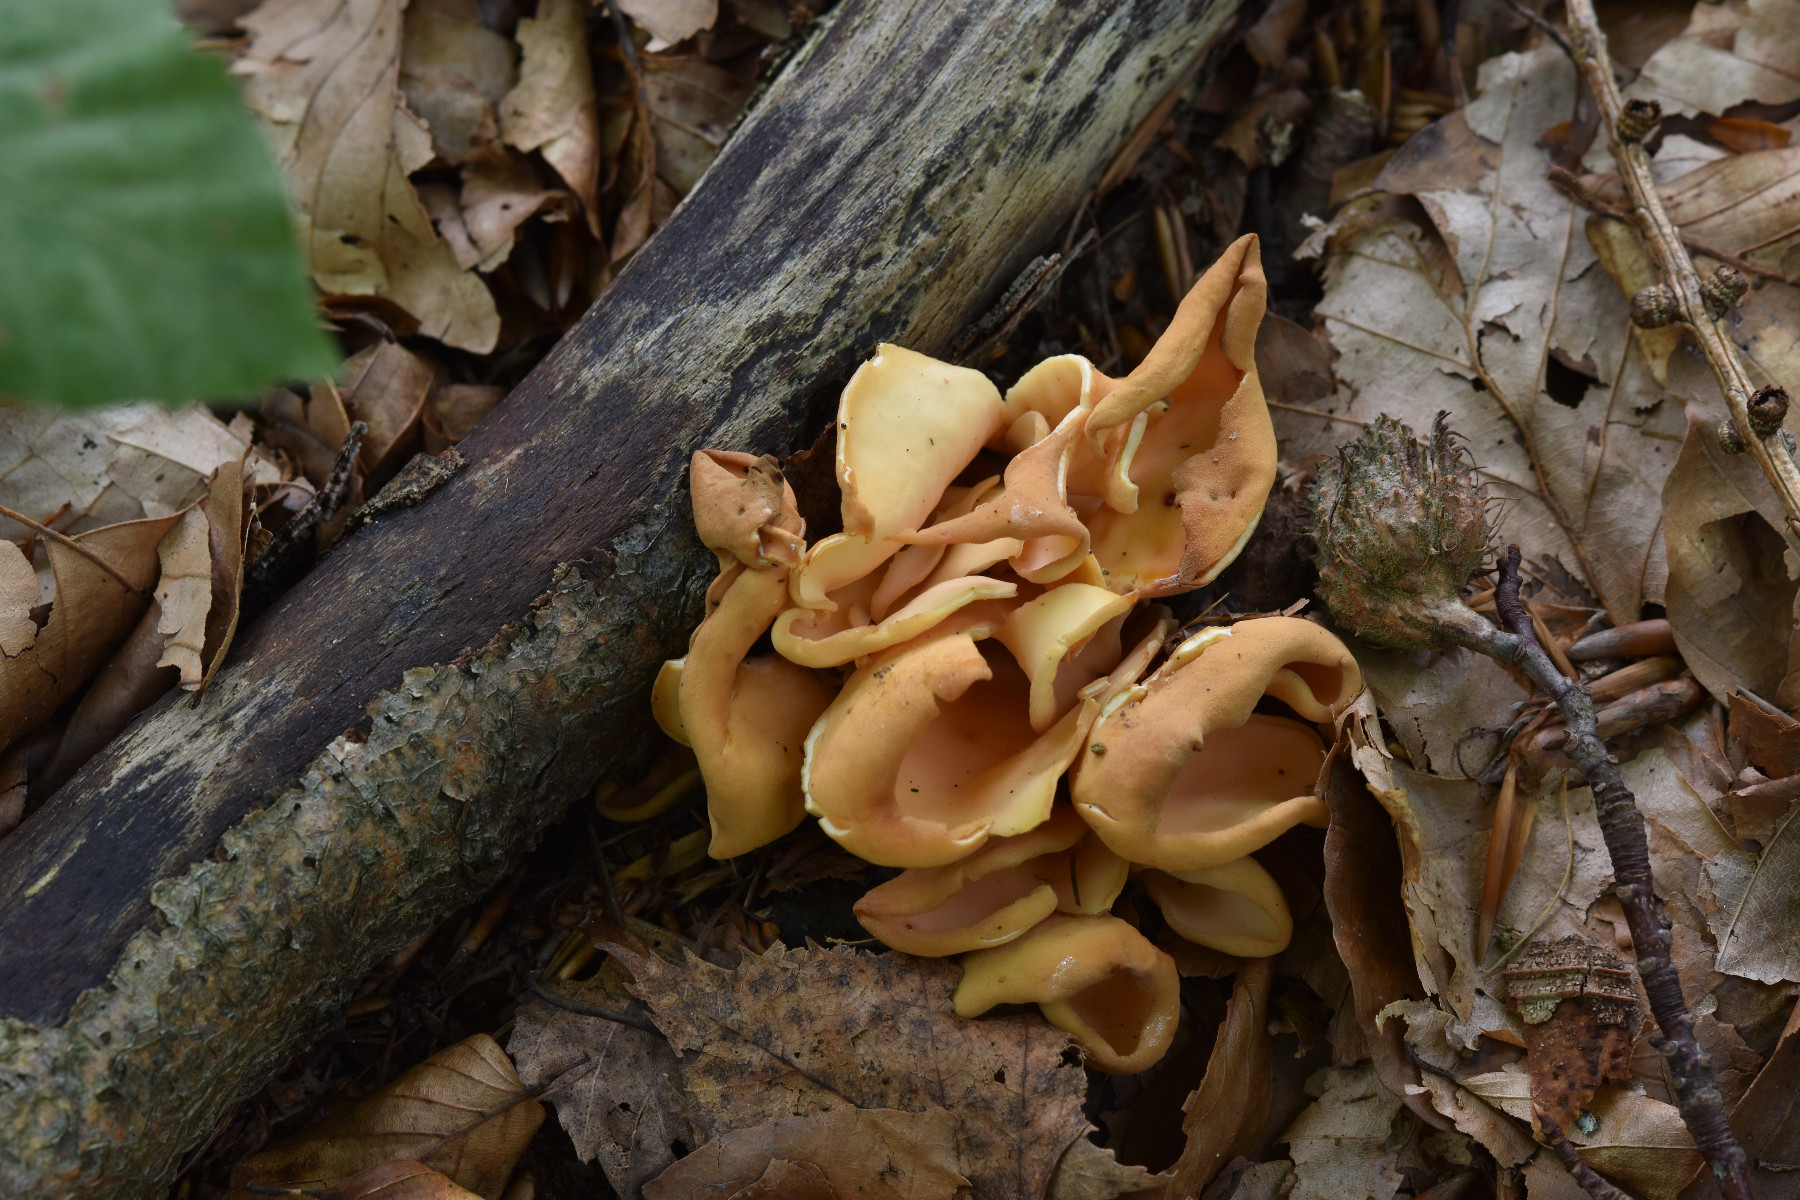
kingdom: Fungi
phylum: Ascomycota
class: Pezizomycetes
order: Pezizales
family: Otideaceae
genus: Otidea
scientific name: Otidea onotica
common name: æsel-ørebæger
